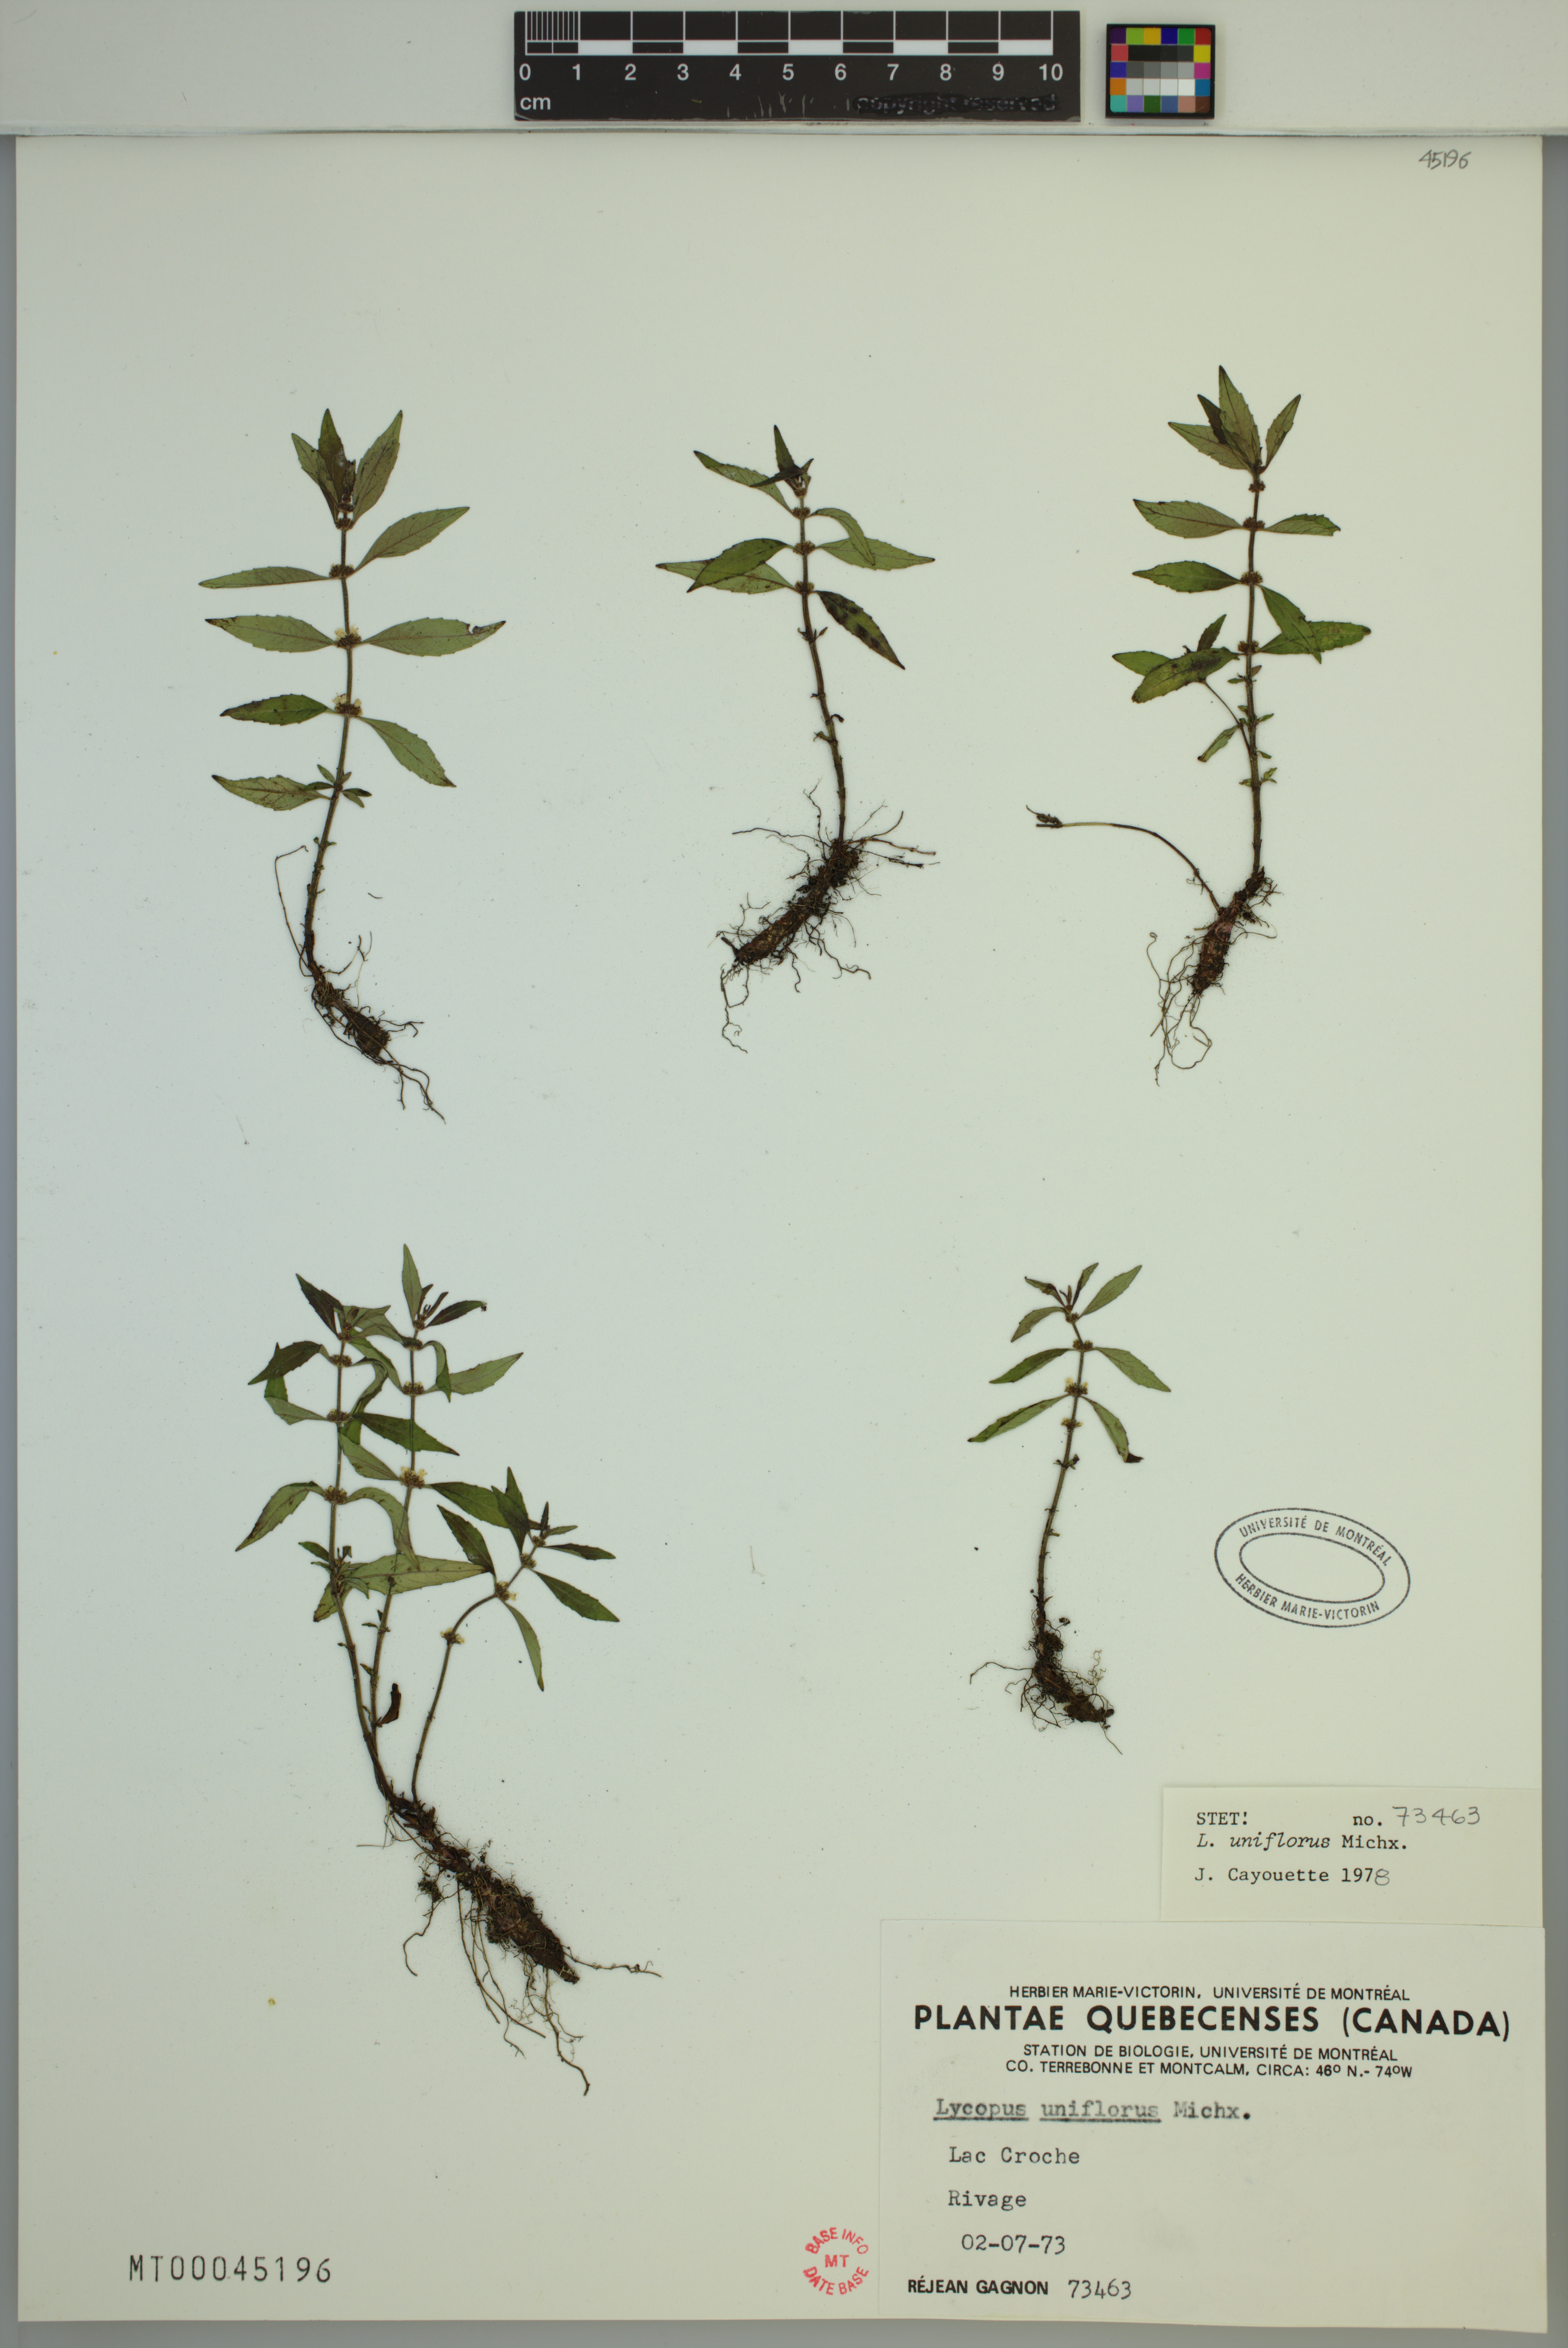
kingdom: Plantae
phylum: Tracheophyta
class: Magnoliopsida
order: Lamiales
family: Lamiaceae
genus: Lycopus
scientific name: Lycopus uniflorus
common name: Northern bugleweed
